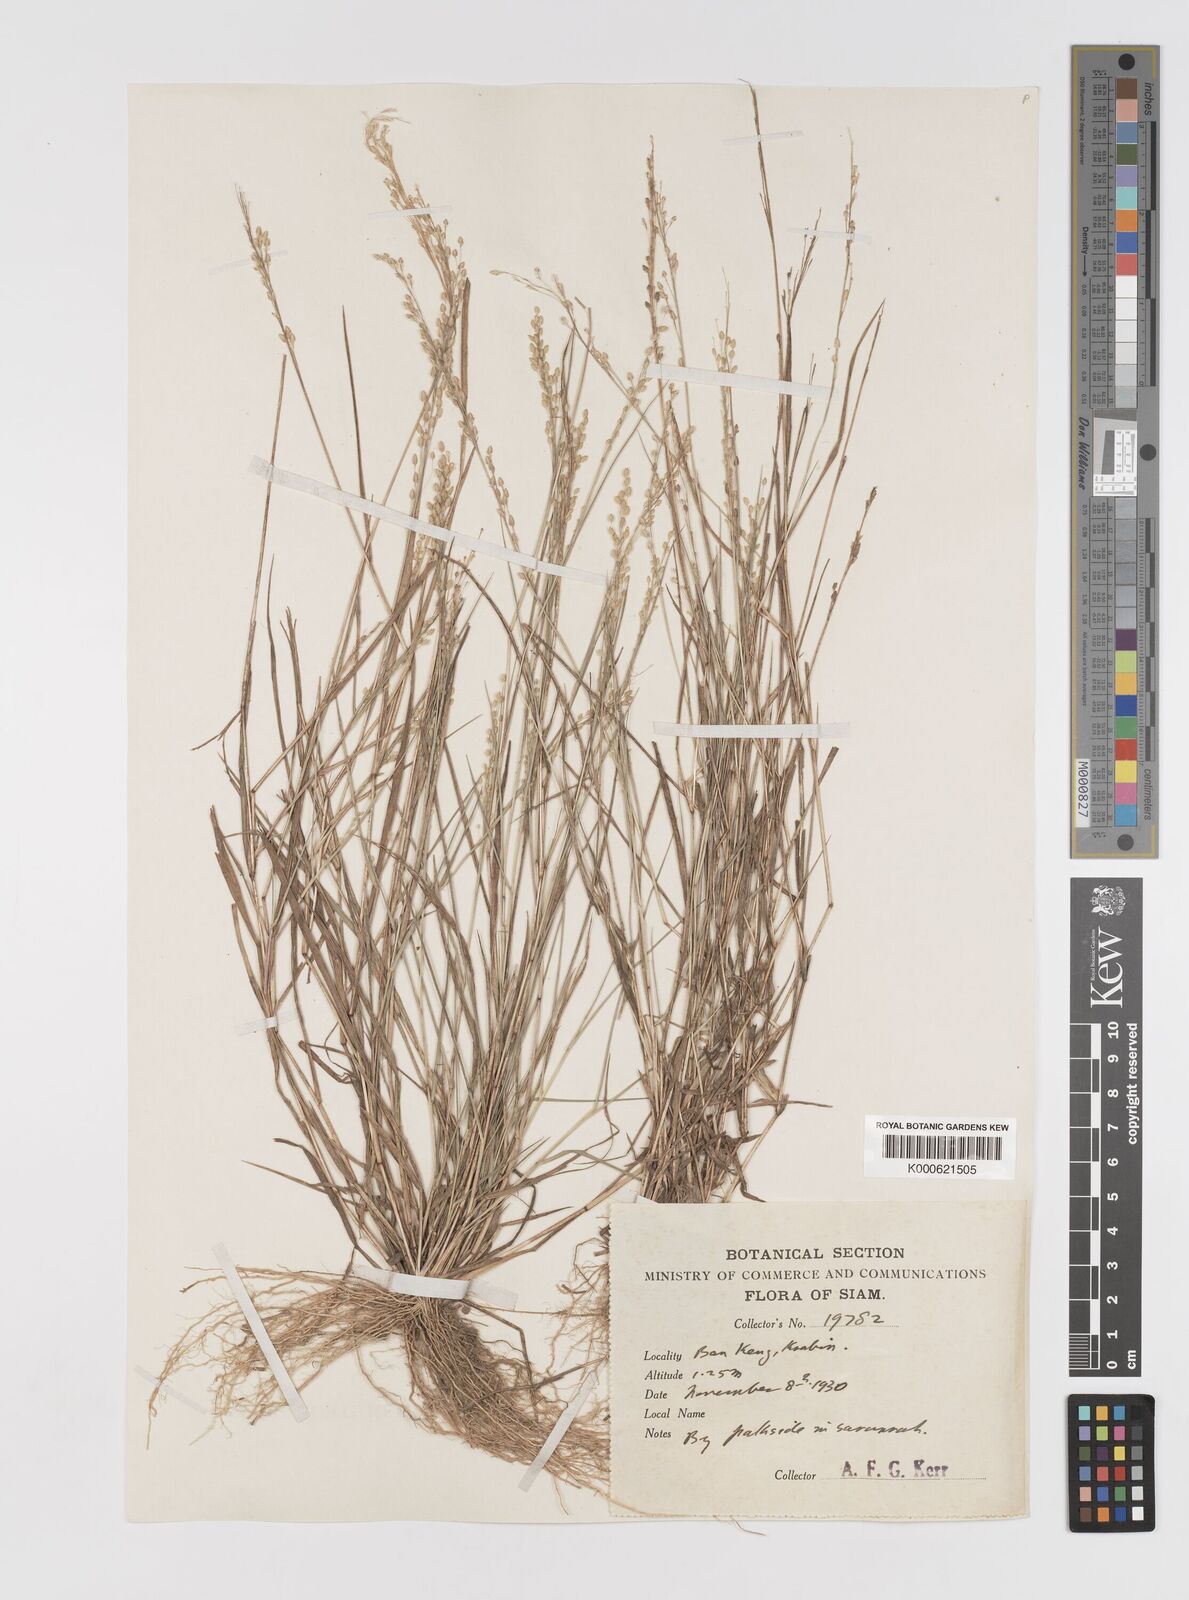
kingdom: Plantae
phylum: Tracheophyta
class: Liliopsida
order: Poales
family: Poaceae
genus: Eragrostis
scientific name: Eragrostis unioloides
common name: Chinese lovegrass
